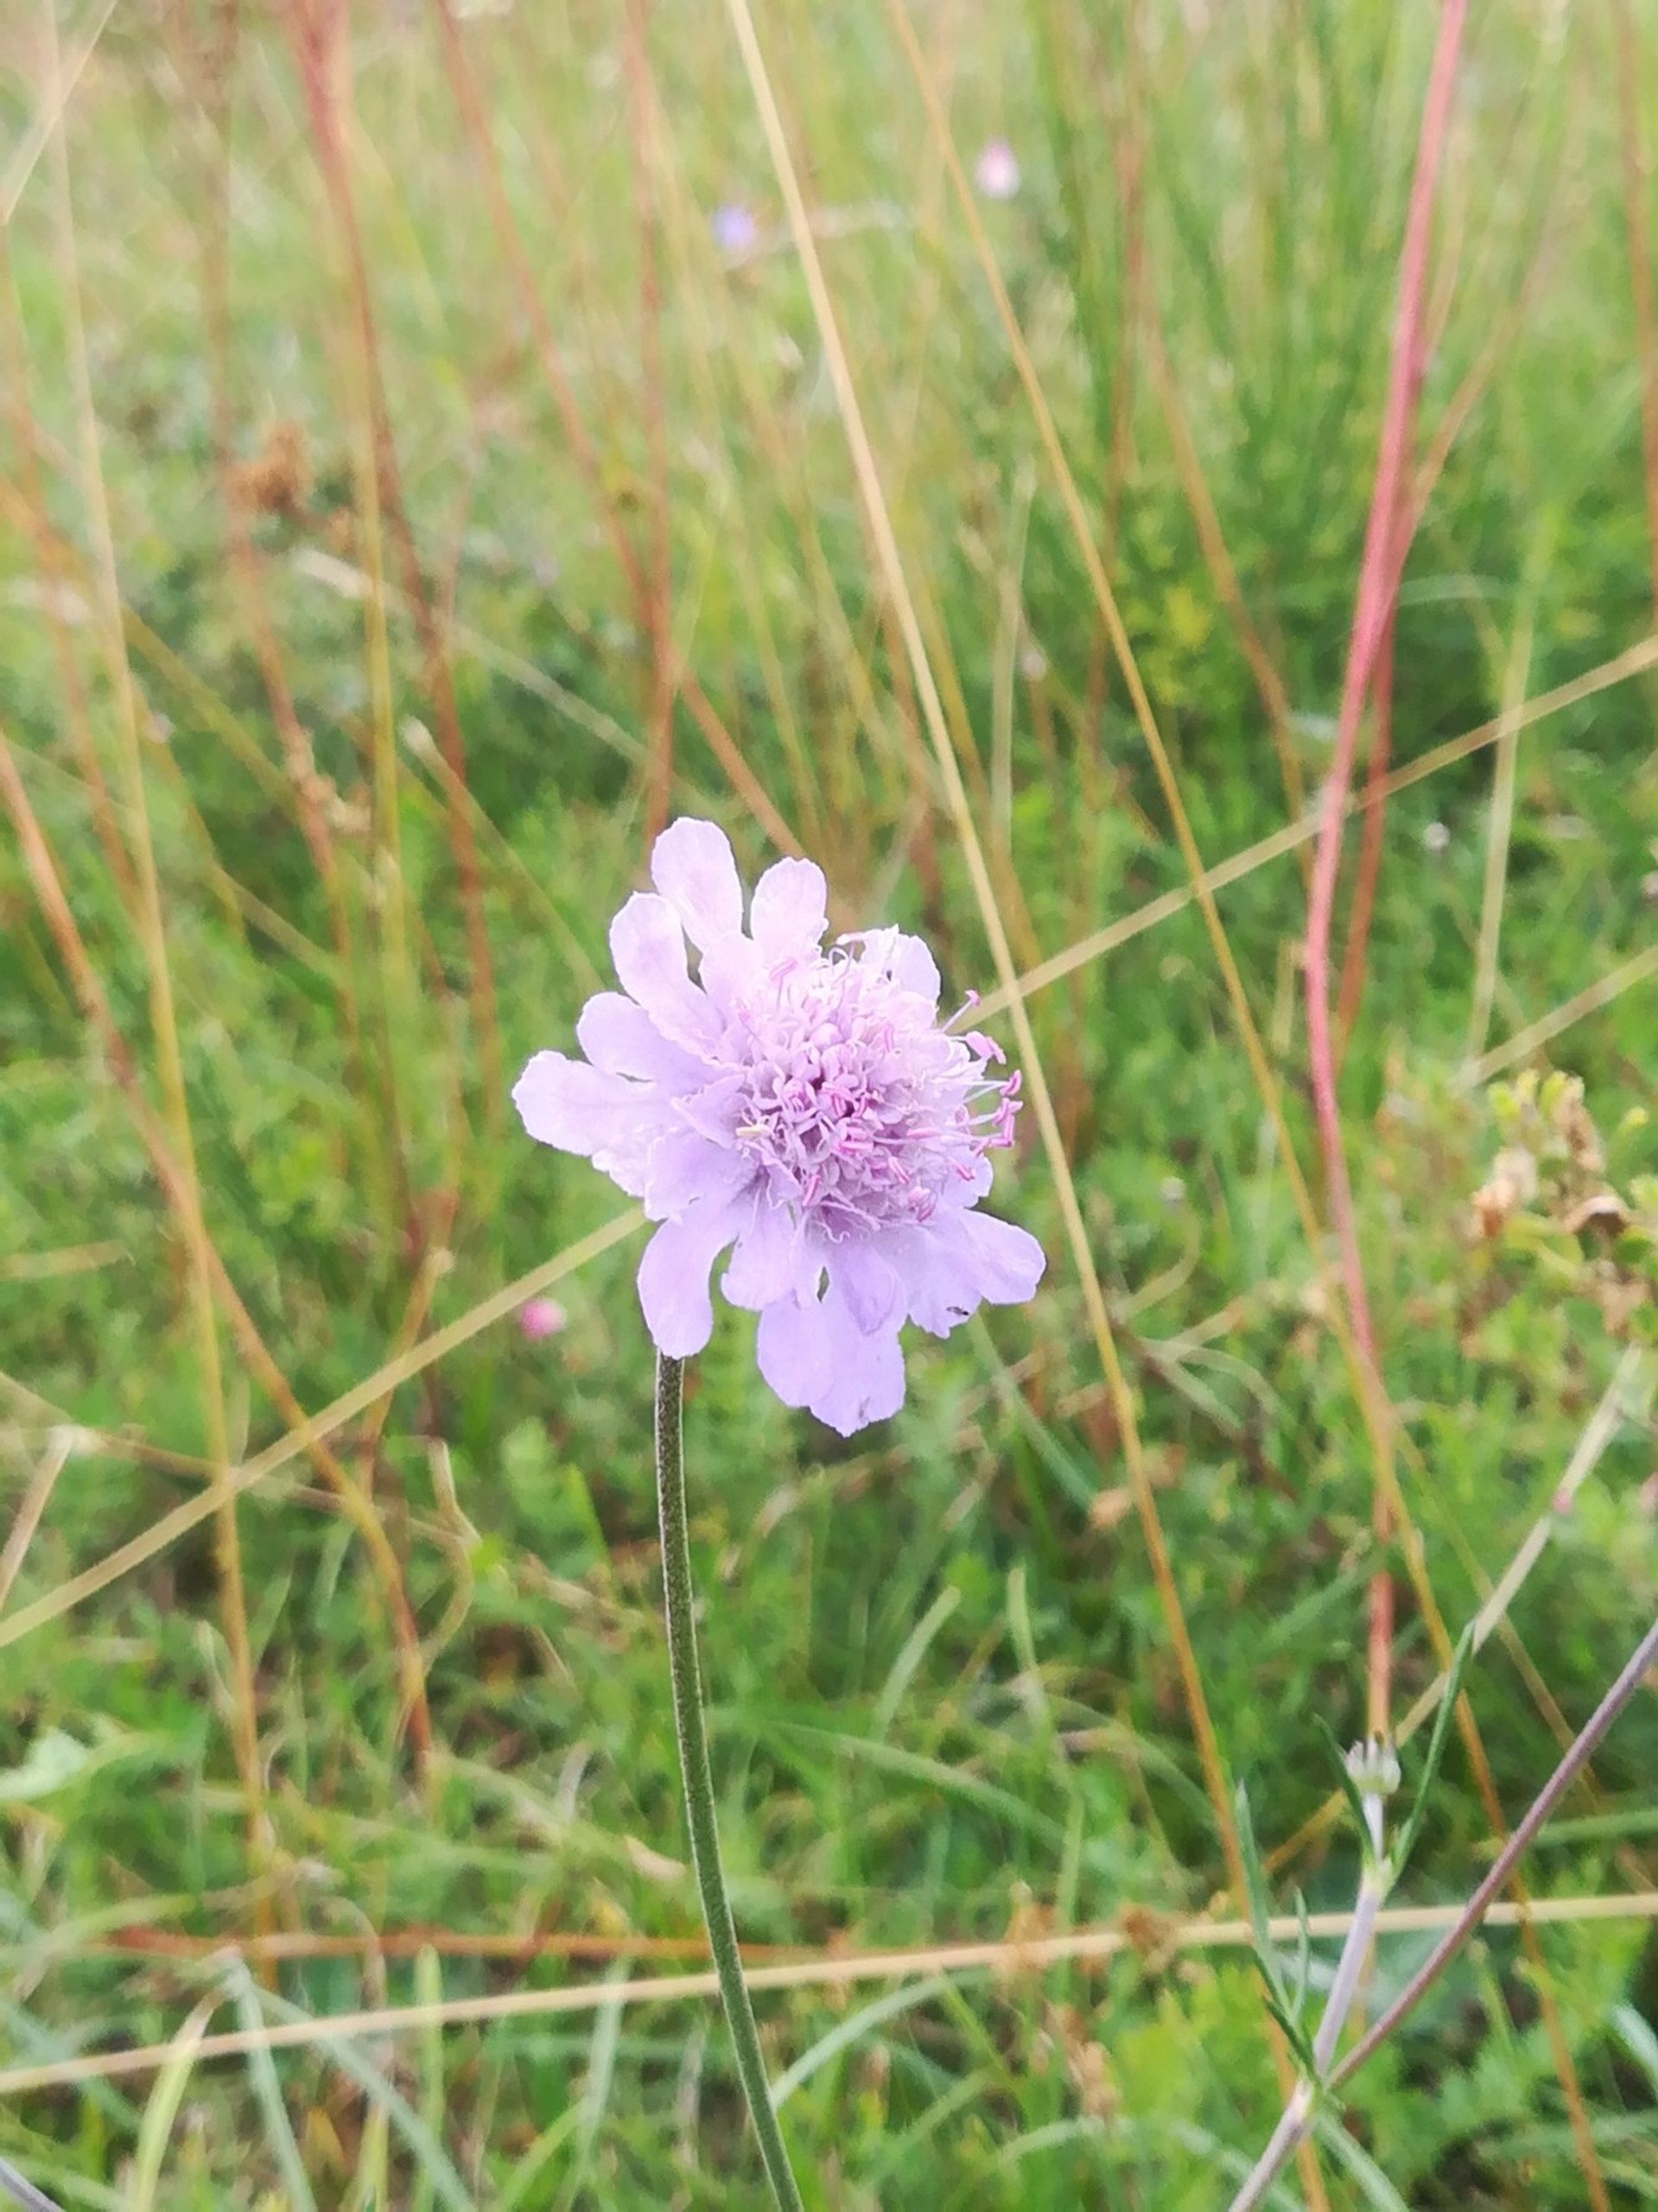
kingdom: Plantae
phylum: Tracheophyta
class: Magnoliopsida
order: Dipsacales
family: Caprifoliaceae
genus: Scabiosa
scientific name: Scabiosa canescens
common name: Vellugtende skabiose
